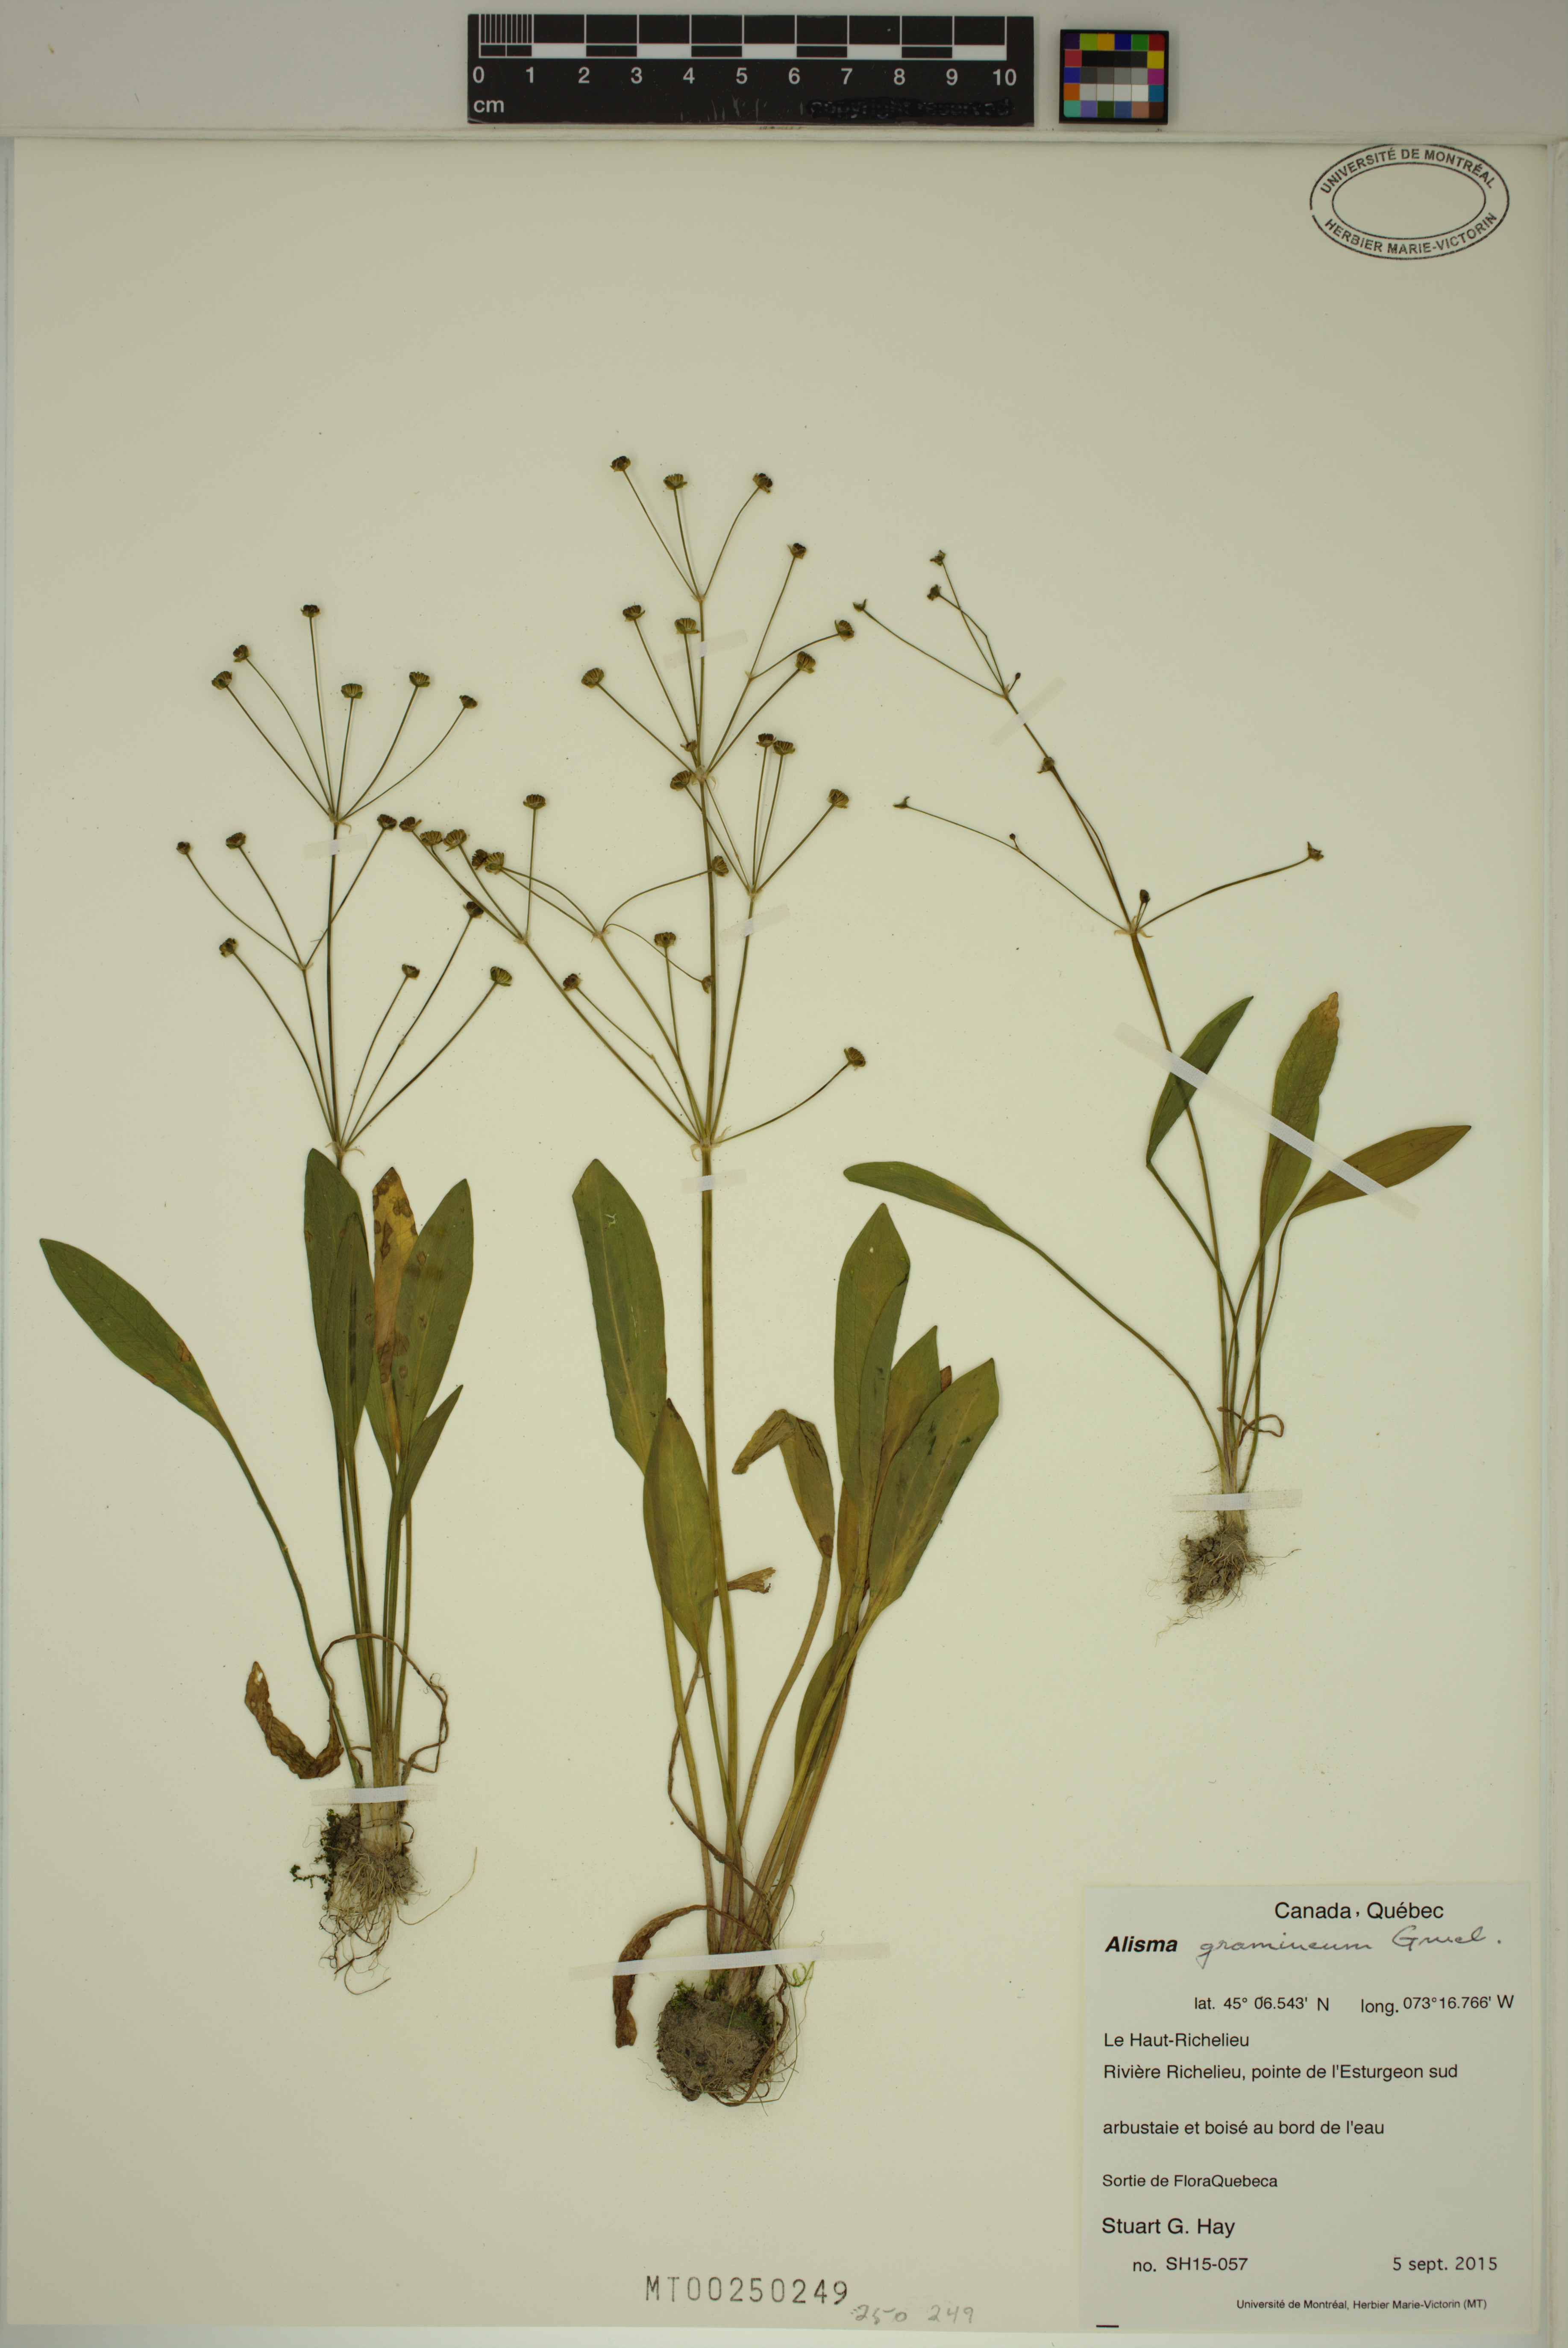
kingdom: Plantae
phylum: Tracheophyta
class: Liliopsida
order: Alismatales
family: Alismataceae
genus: Alisma
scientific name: Alisma gramineum
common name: Ribbon-leaved water-plantain
